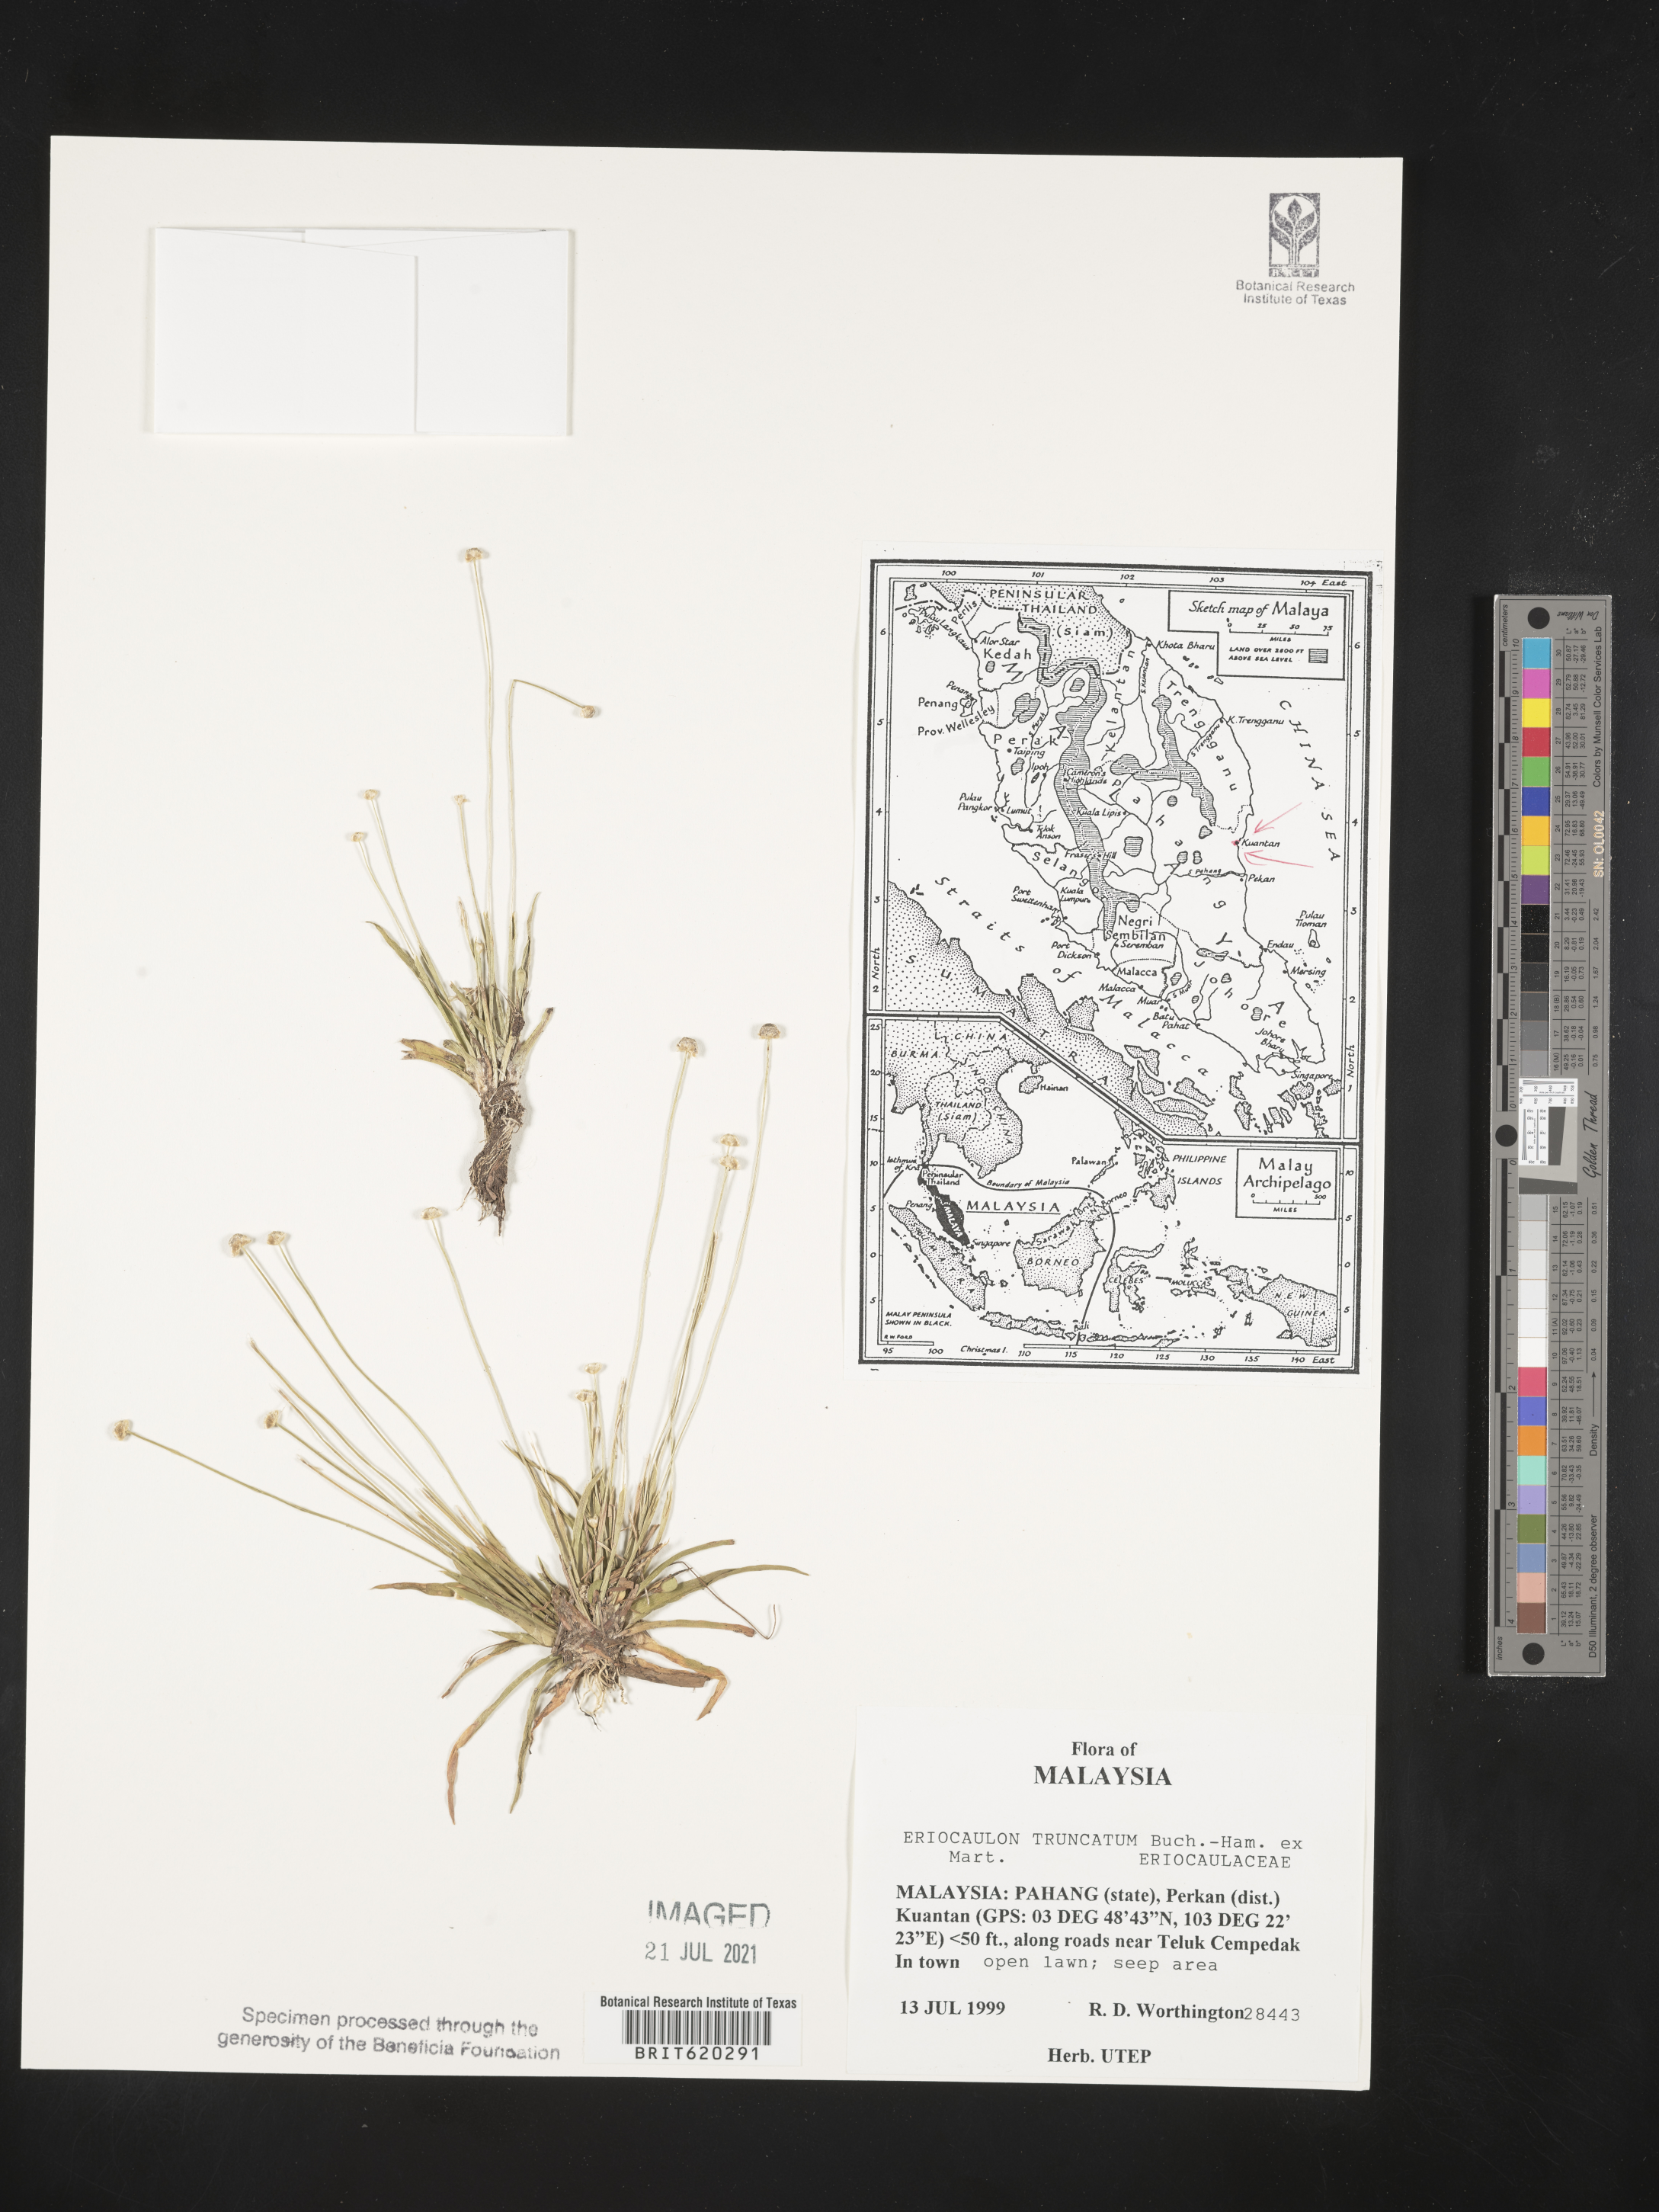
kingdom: Plantae
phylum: Tracheophyta
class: Liliopsida
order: Poales
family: Eriocaulaceae
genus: Eriocaulon
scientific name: Eriocaulon truncatum
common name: Short pipe-wort
